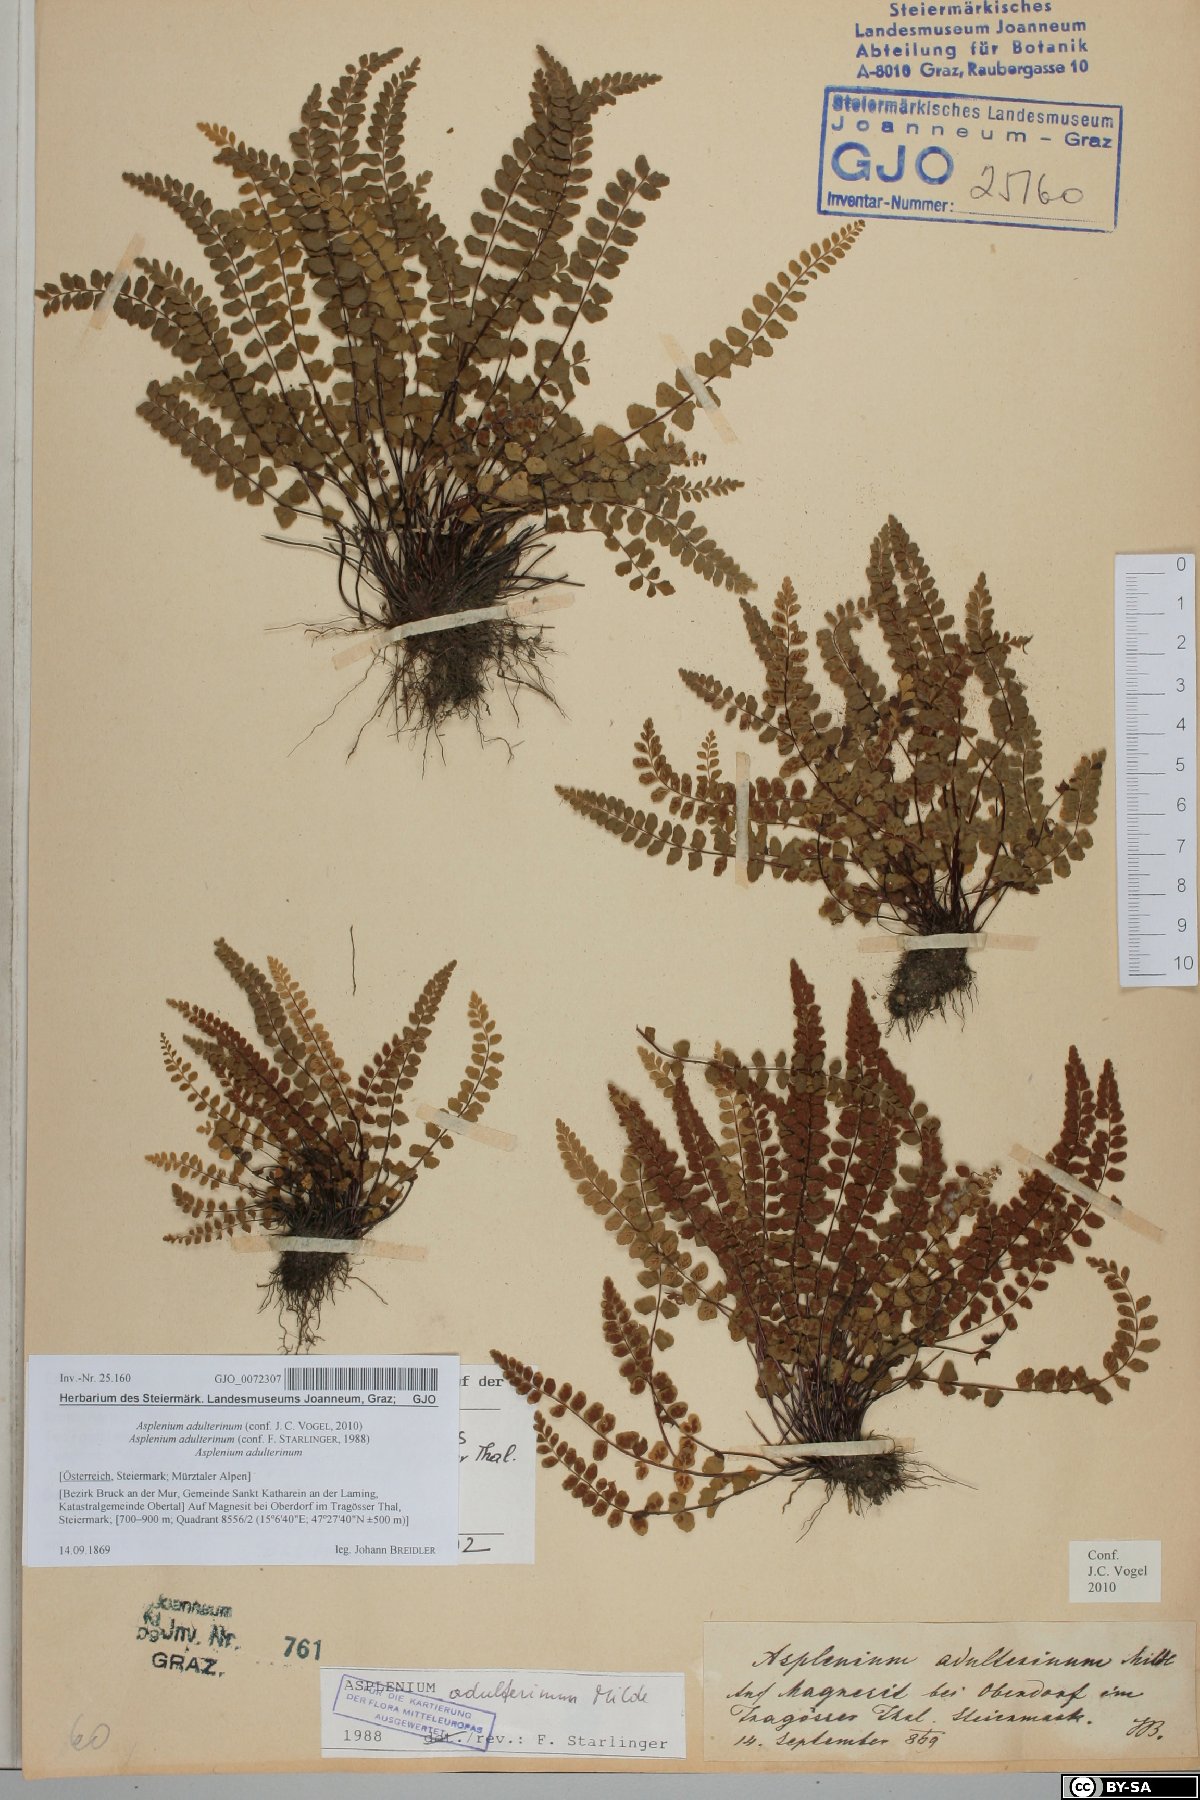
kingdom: Plantae
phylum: Tracheophyta
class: Polypodiopsida
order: Polypodiales
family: Aspleniaceae
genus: Asplenium
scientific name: Asplenium adulterinum
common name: Adulterated spleenwort
